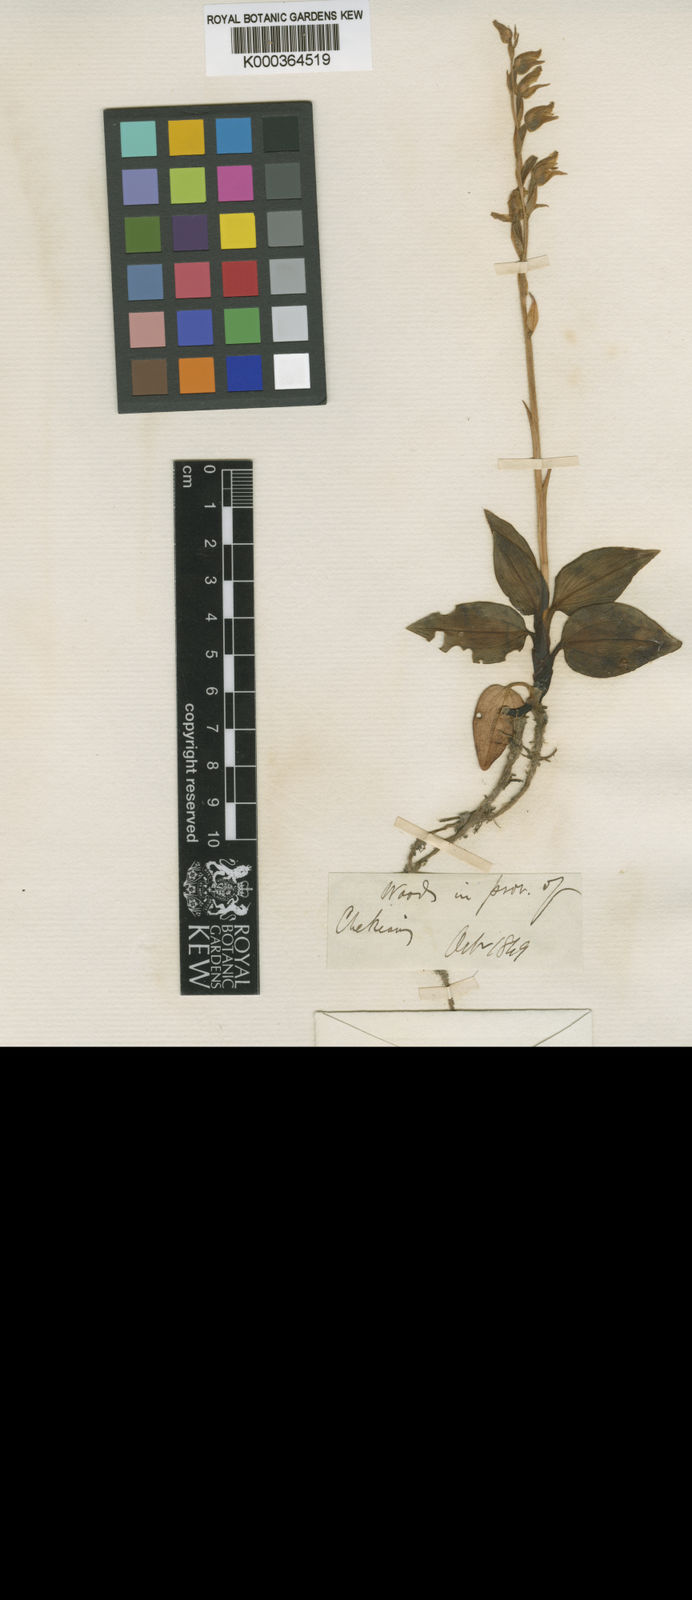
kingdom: Plantae
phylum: Tracheophyta
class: Liliopsida
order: Asparagales
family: Orchidaceae
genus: Goodyera
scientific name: Goodyera foliosa
